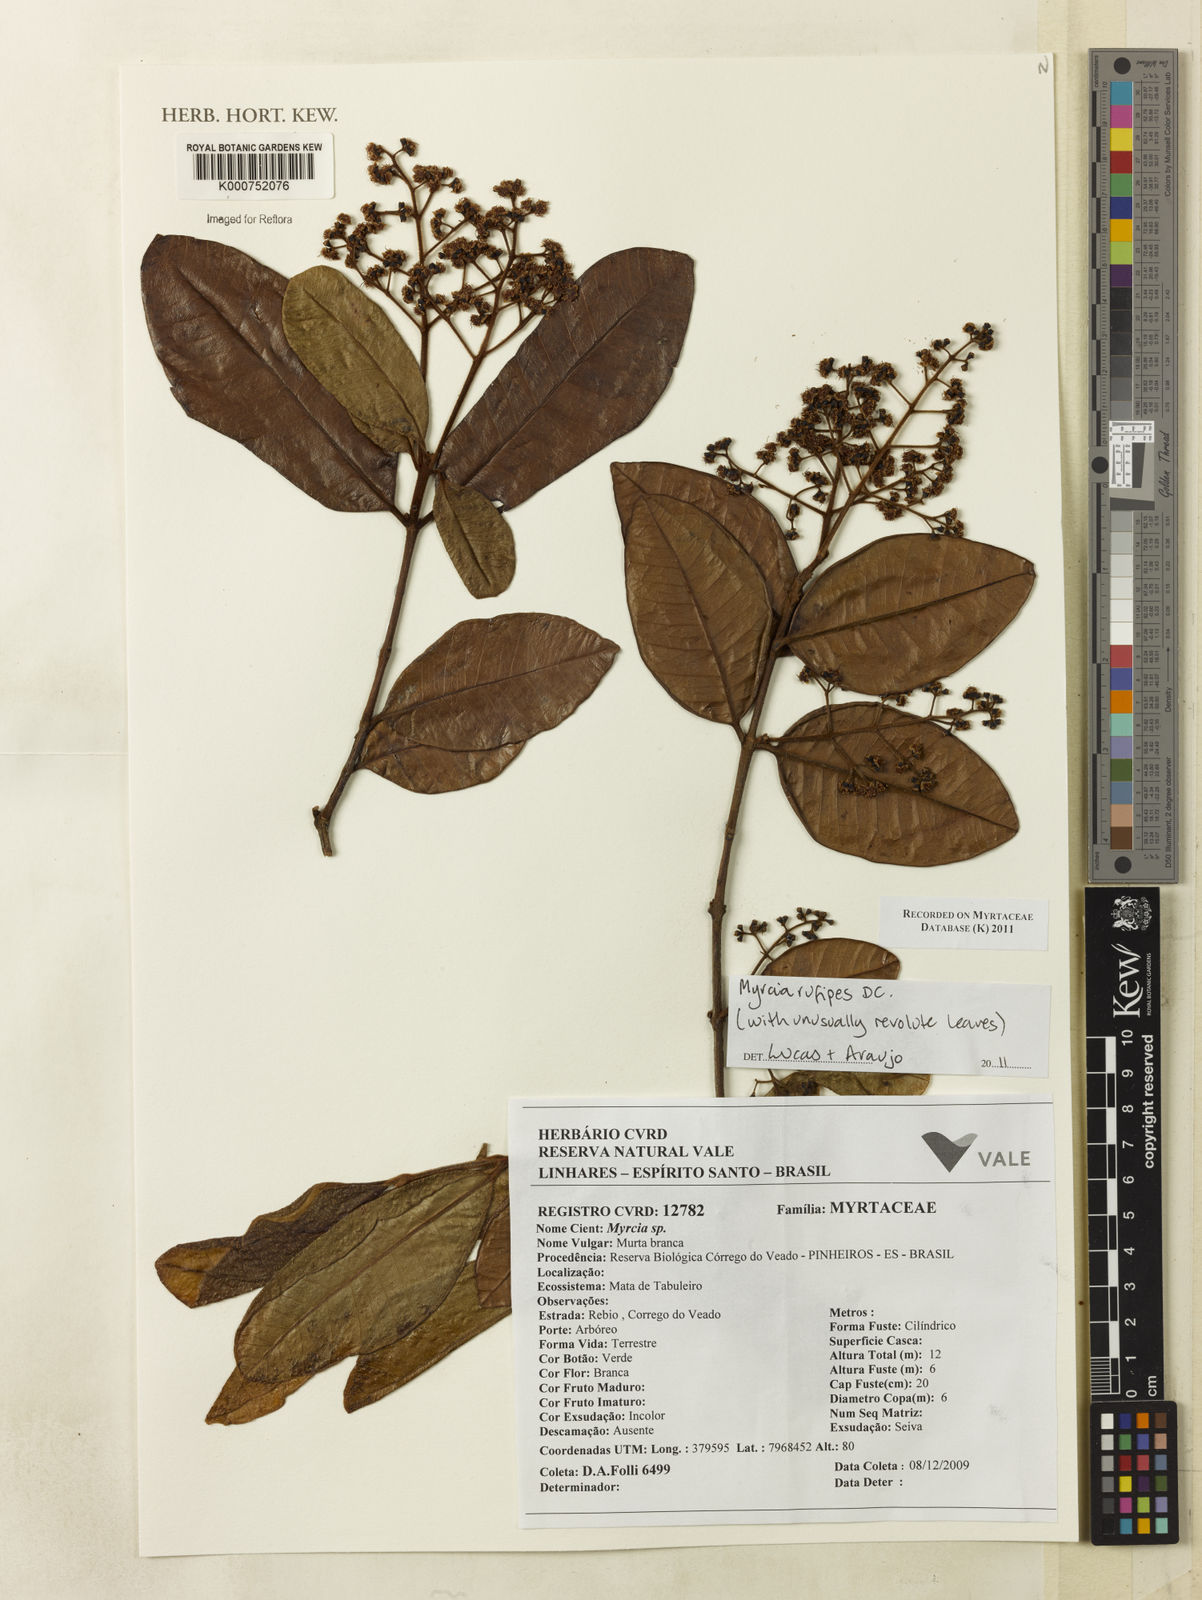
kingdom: Plantae
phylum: Tracheophyta
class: Magnoliopsida
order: Myrtales
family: Myrtaceae
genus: Myrcia
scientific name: Myrcia rufipes
